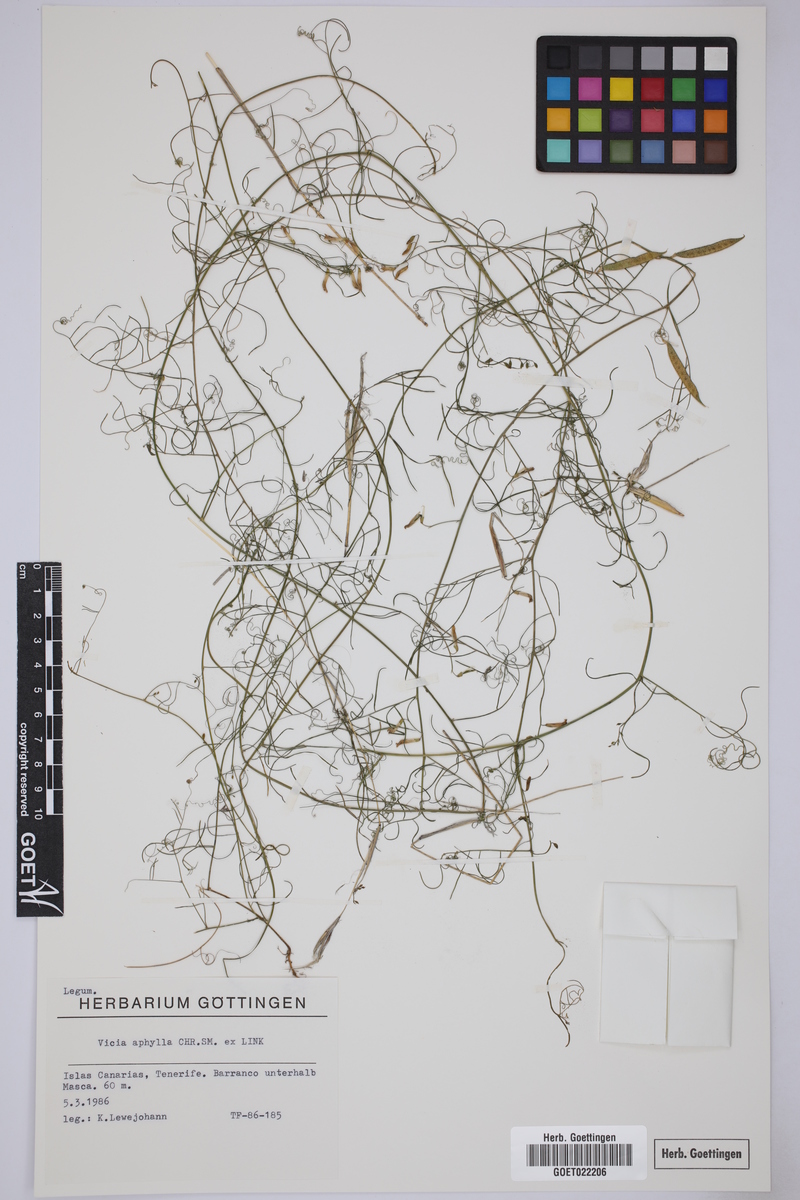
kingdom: Plantae
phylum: Tracheophyta
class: Magnoliopsida
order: Fabales
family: Fabaceae
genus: Vicia
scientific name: Vicia aphylla
